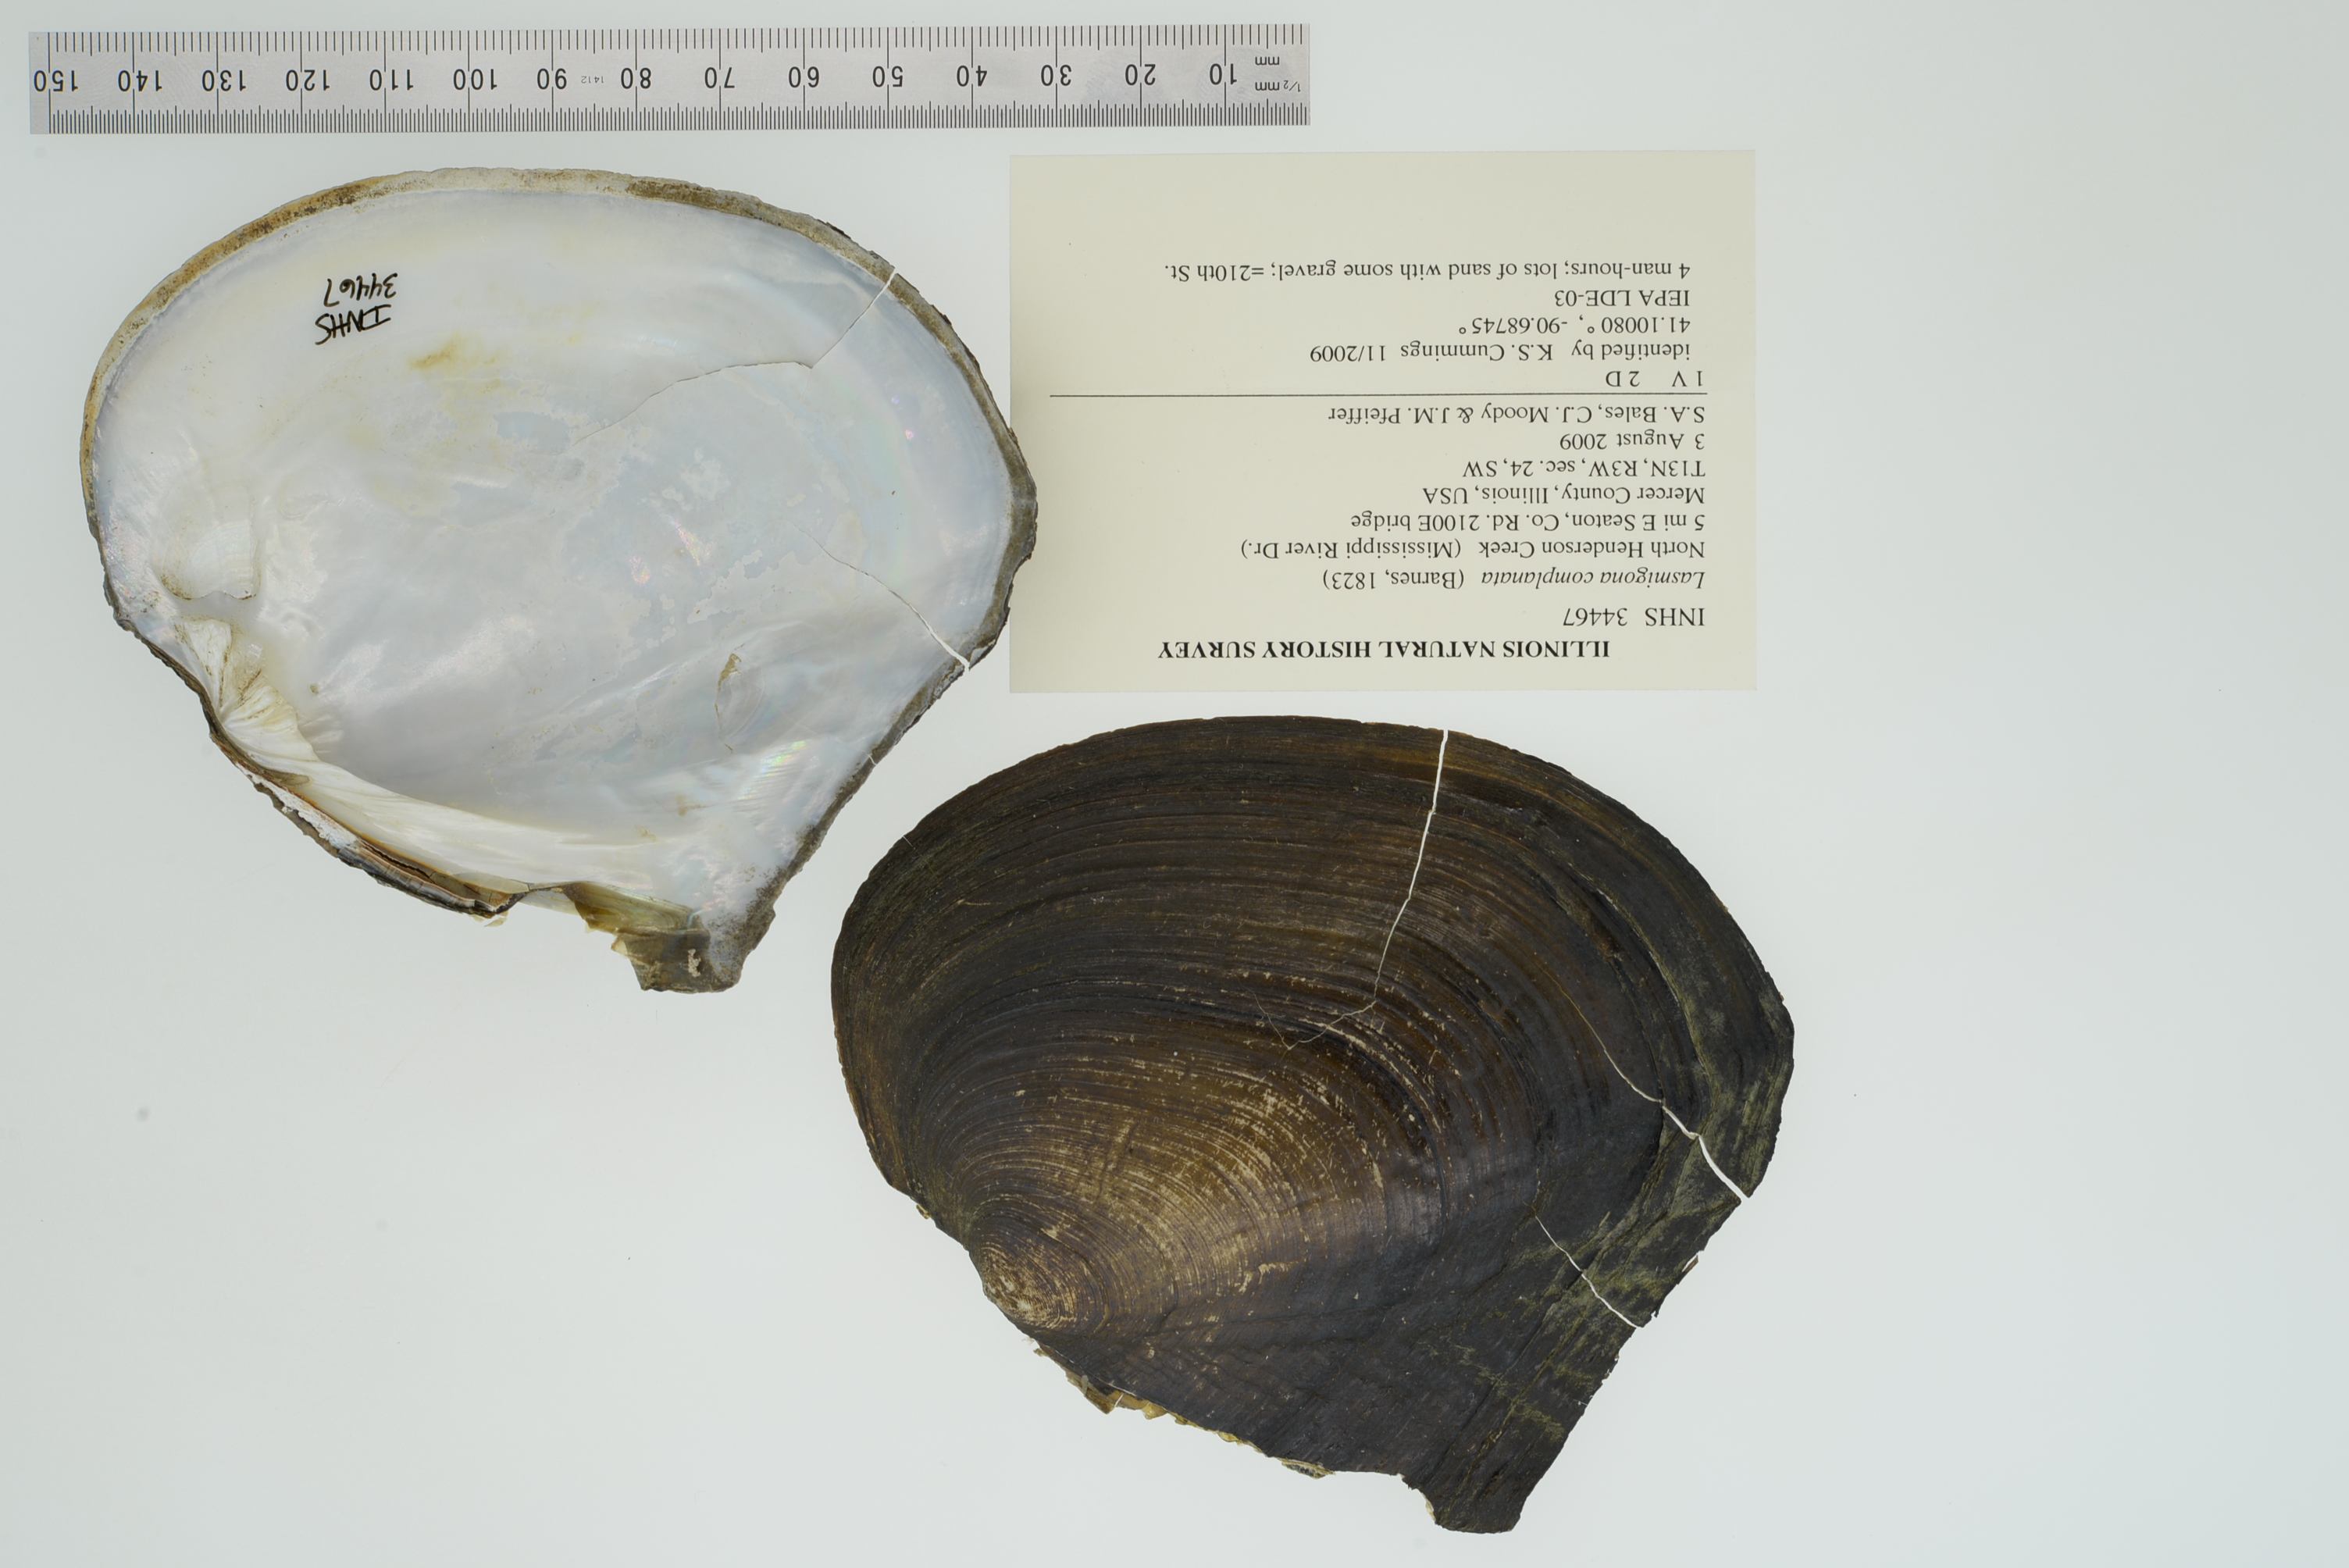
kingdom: Animalia
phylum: Mollusca
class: Bivalvia
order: Unionida
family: Unionidae
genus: Lasmigona
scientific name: Lasmigona complanata
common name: White heelsplitter
